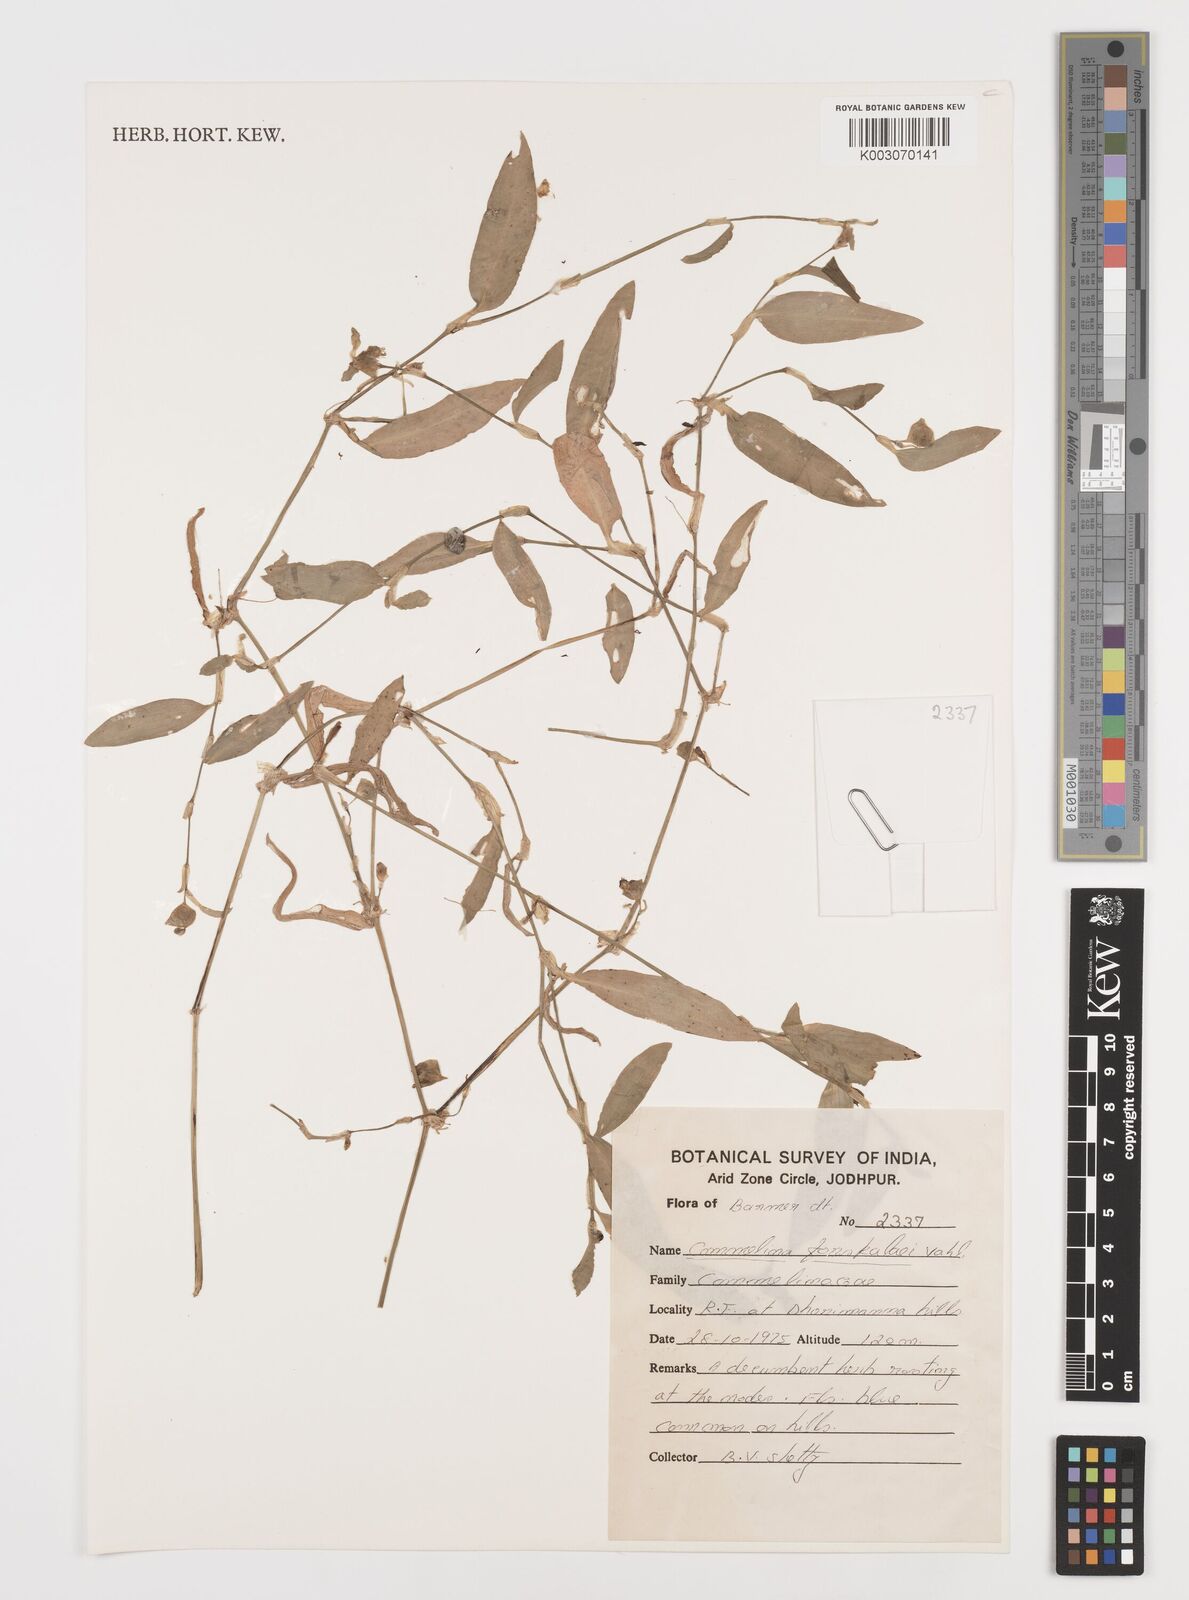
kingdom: Plantae
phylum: Tracheophyta
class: Liliopsida
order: Commelinales
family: Commelinaceae
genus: Commelina
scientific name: Commelina forskaolii
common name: Rat's ear
